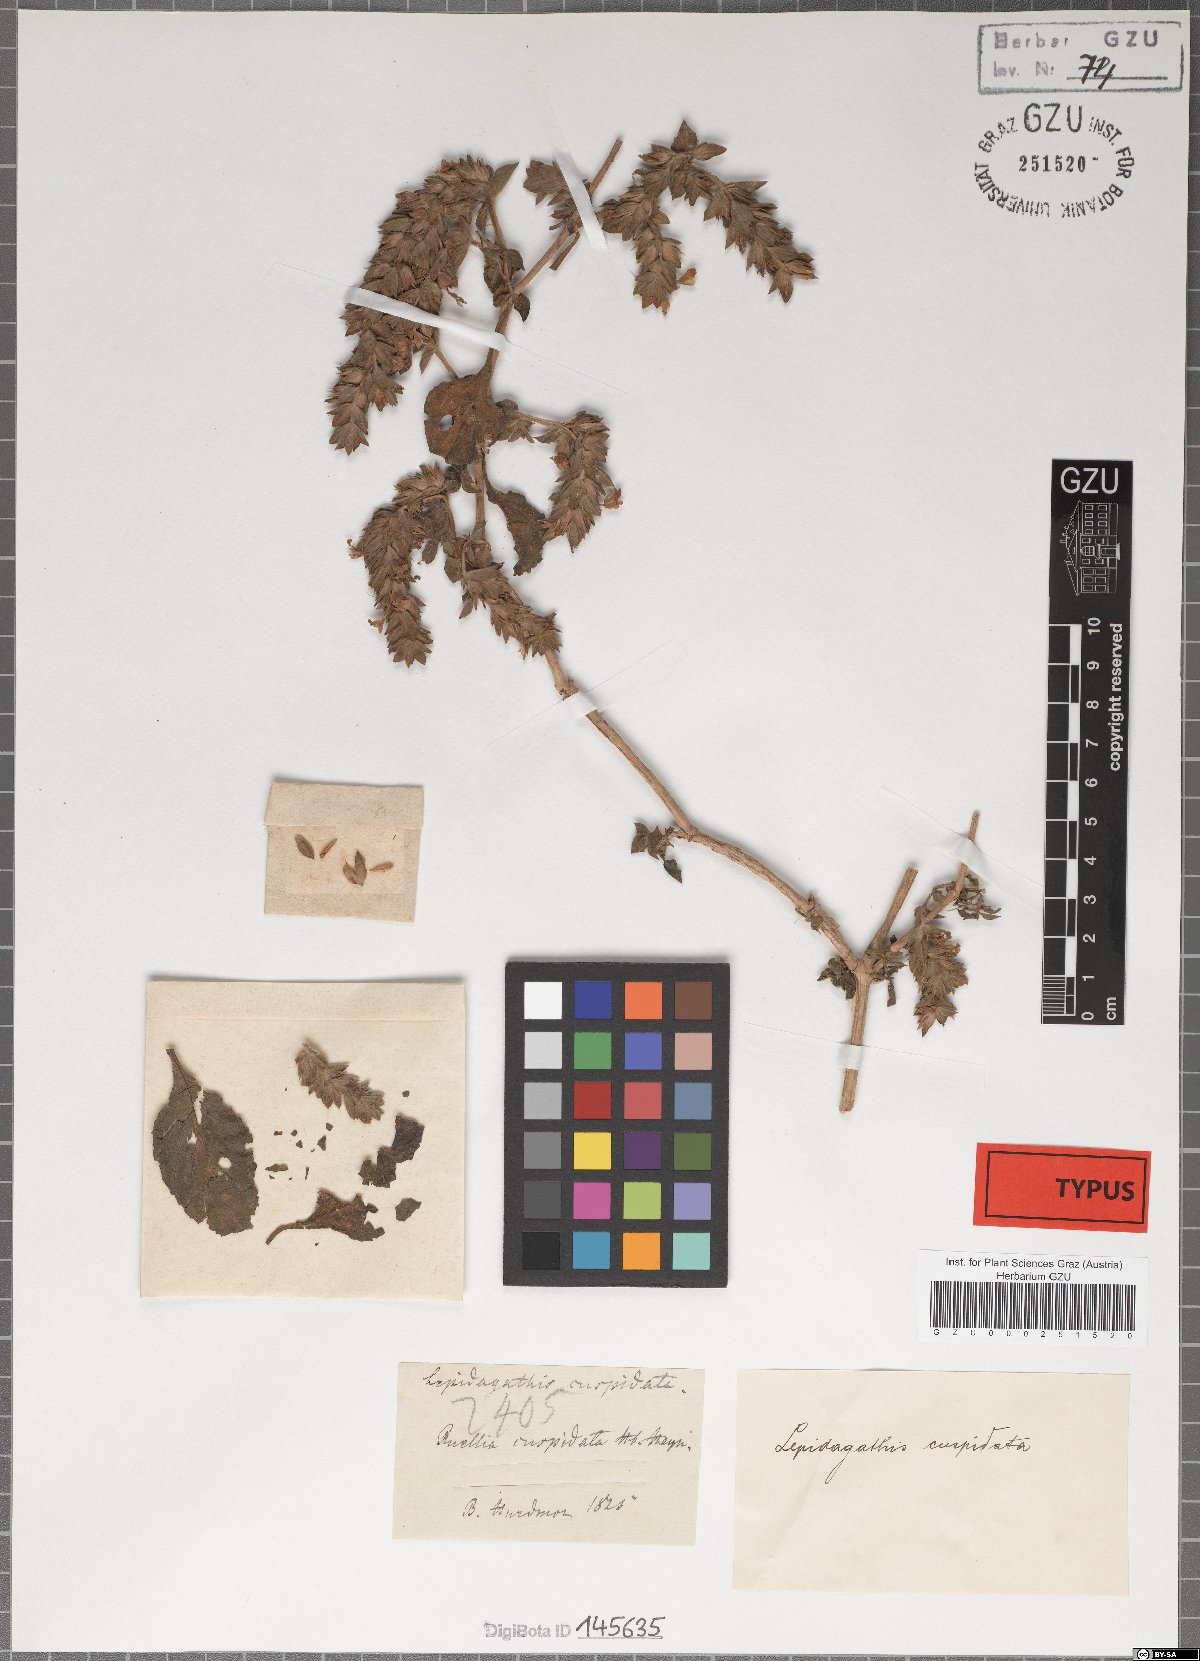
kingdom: Plantae
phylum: Tracheophyta
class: Magnoliopsida
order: Lamiales
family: Acanthaceae
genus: Lepidagathis
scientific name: Lepidagathis cuspidata
